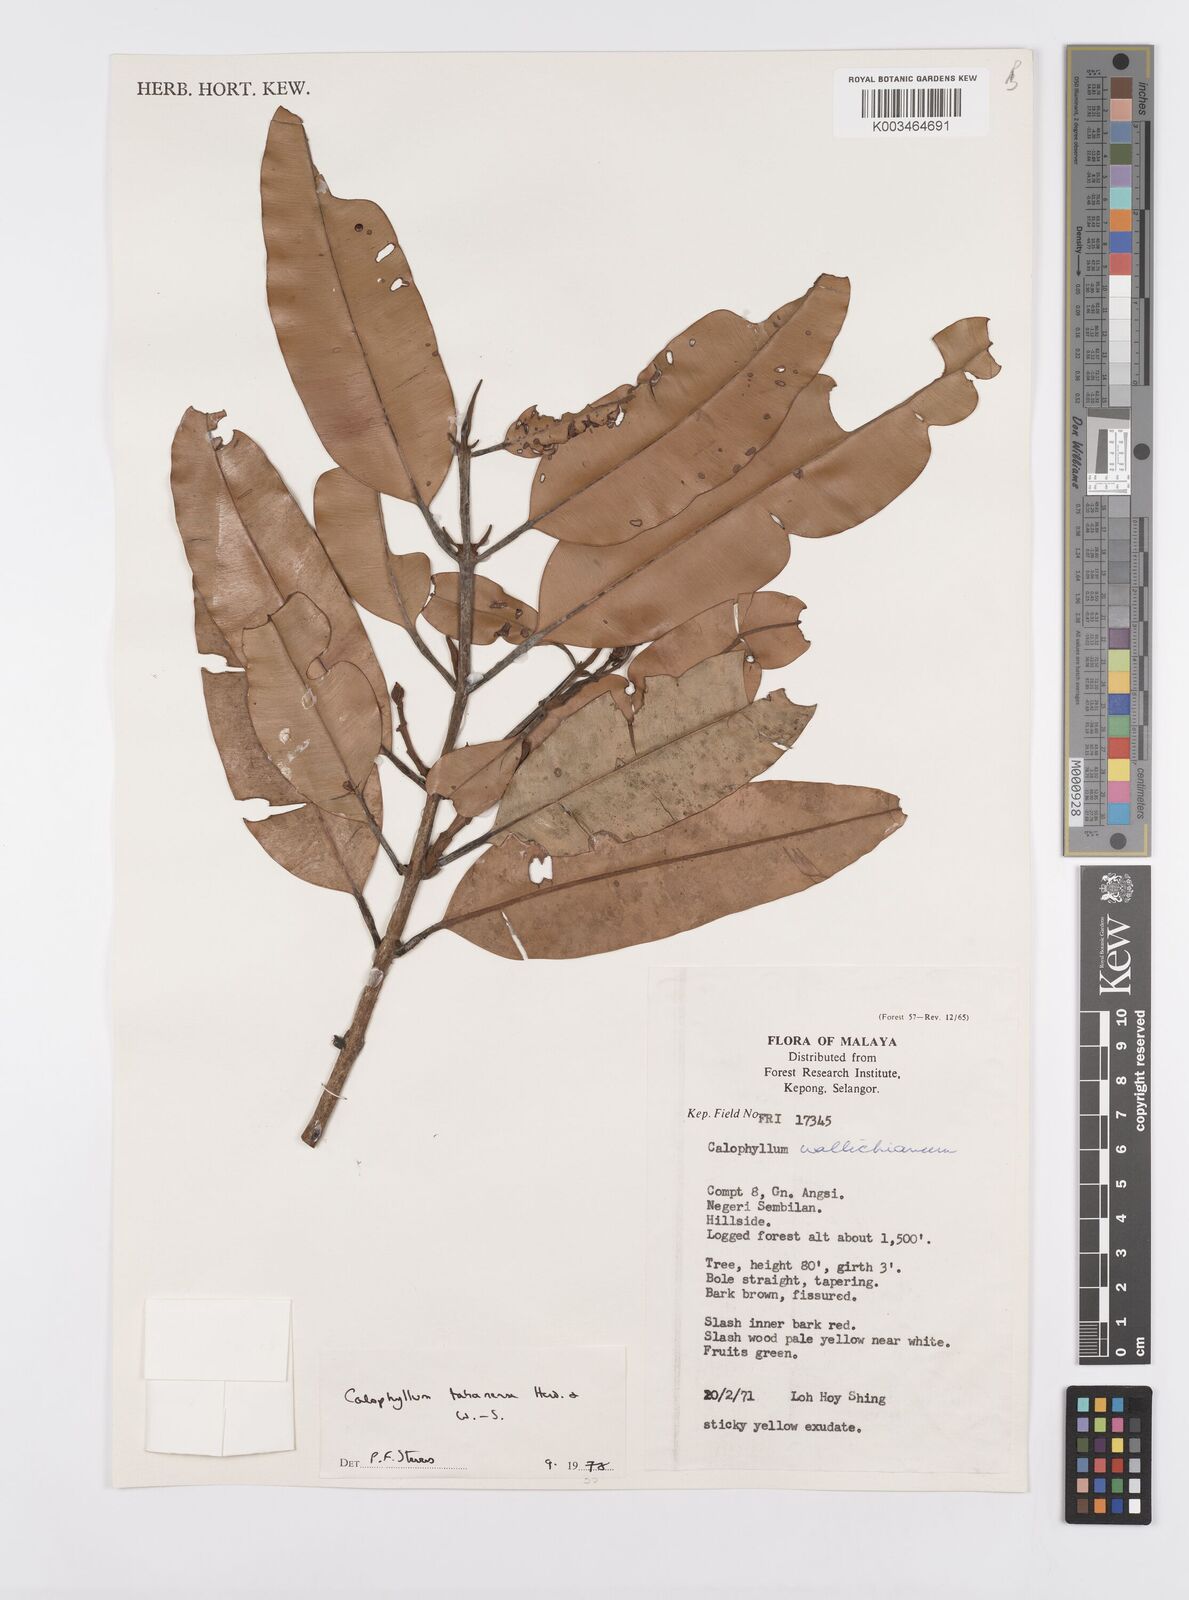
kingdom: Plantae
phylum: Tracheophyta
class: Magnoliopsida
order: Malpighiales
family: Calophyllaceae
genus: Calophyllum
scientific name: Calophyllum wallichiana
